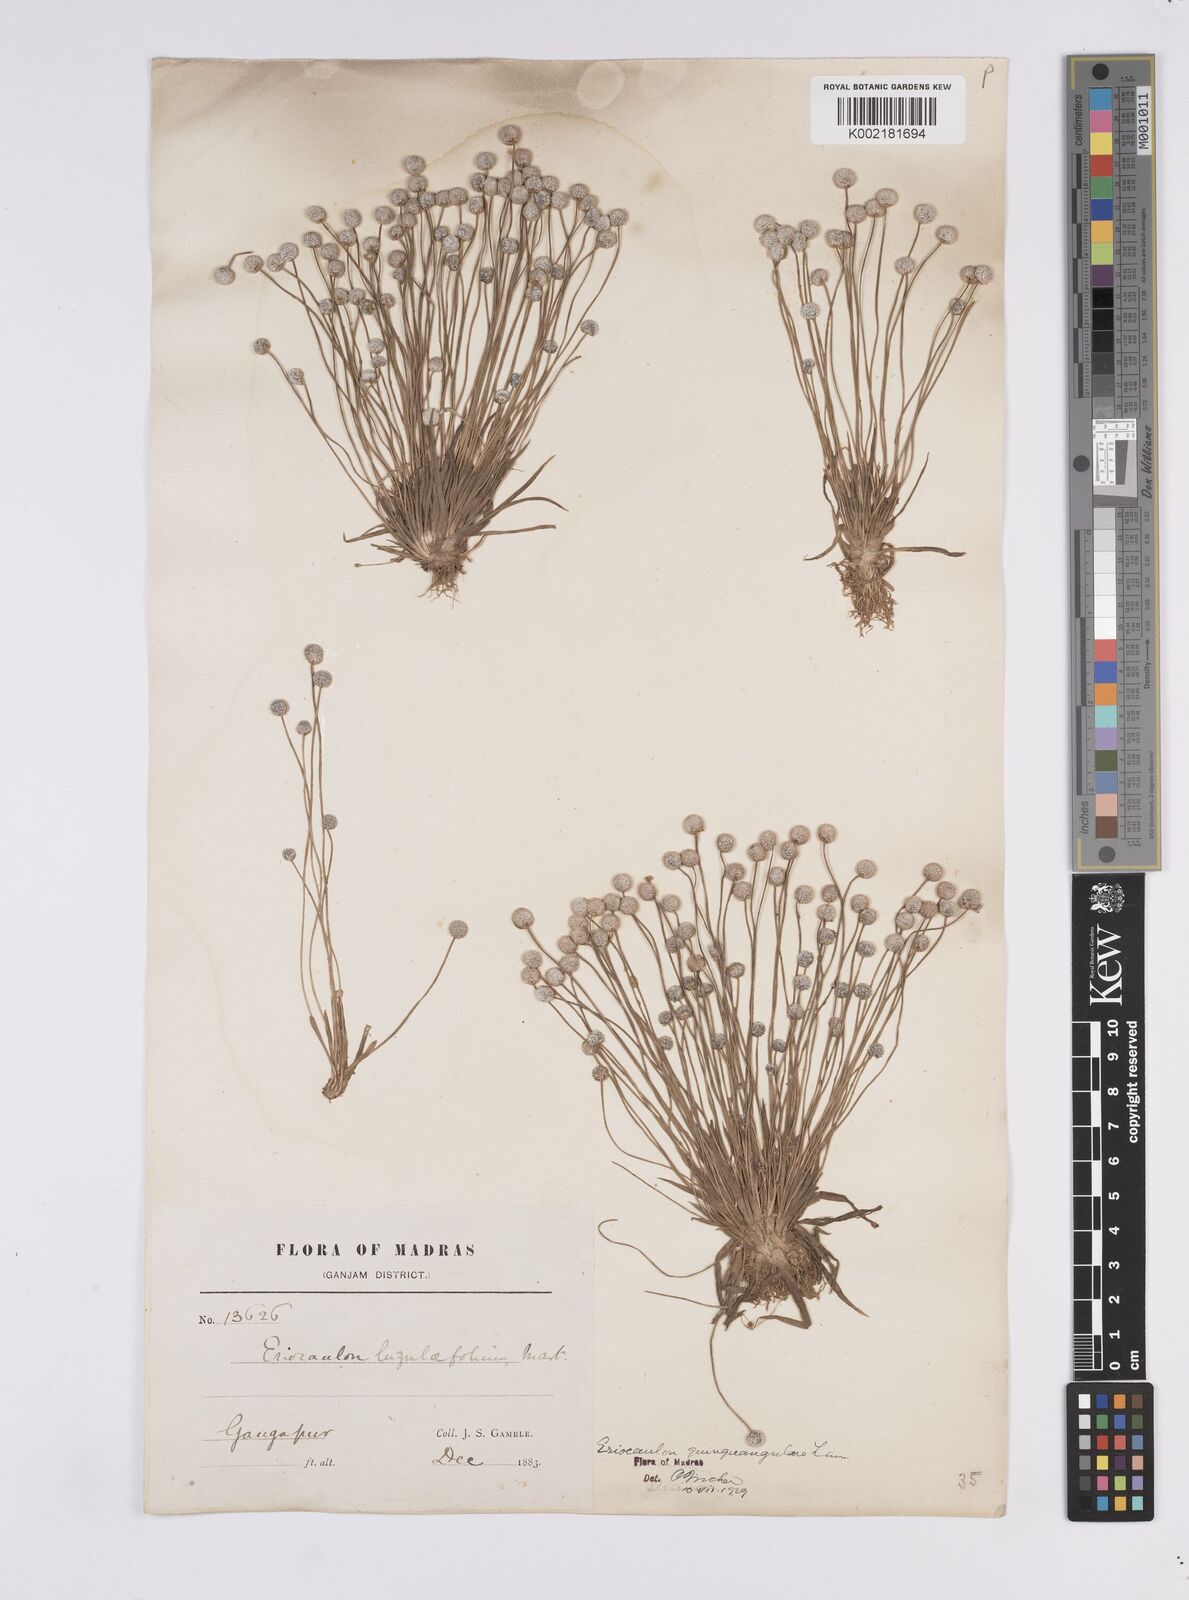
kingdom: Plantae
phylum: Tracheophyta
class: Liliopsida
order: Poales
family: Eriocaulaceae
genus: Eriocaulon
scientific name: Eriocaulon quinquangulare
